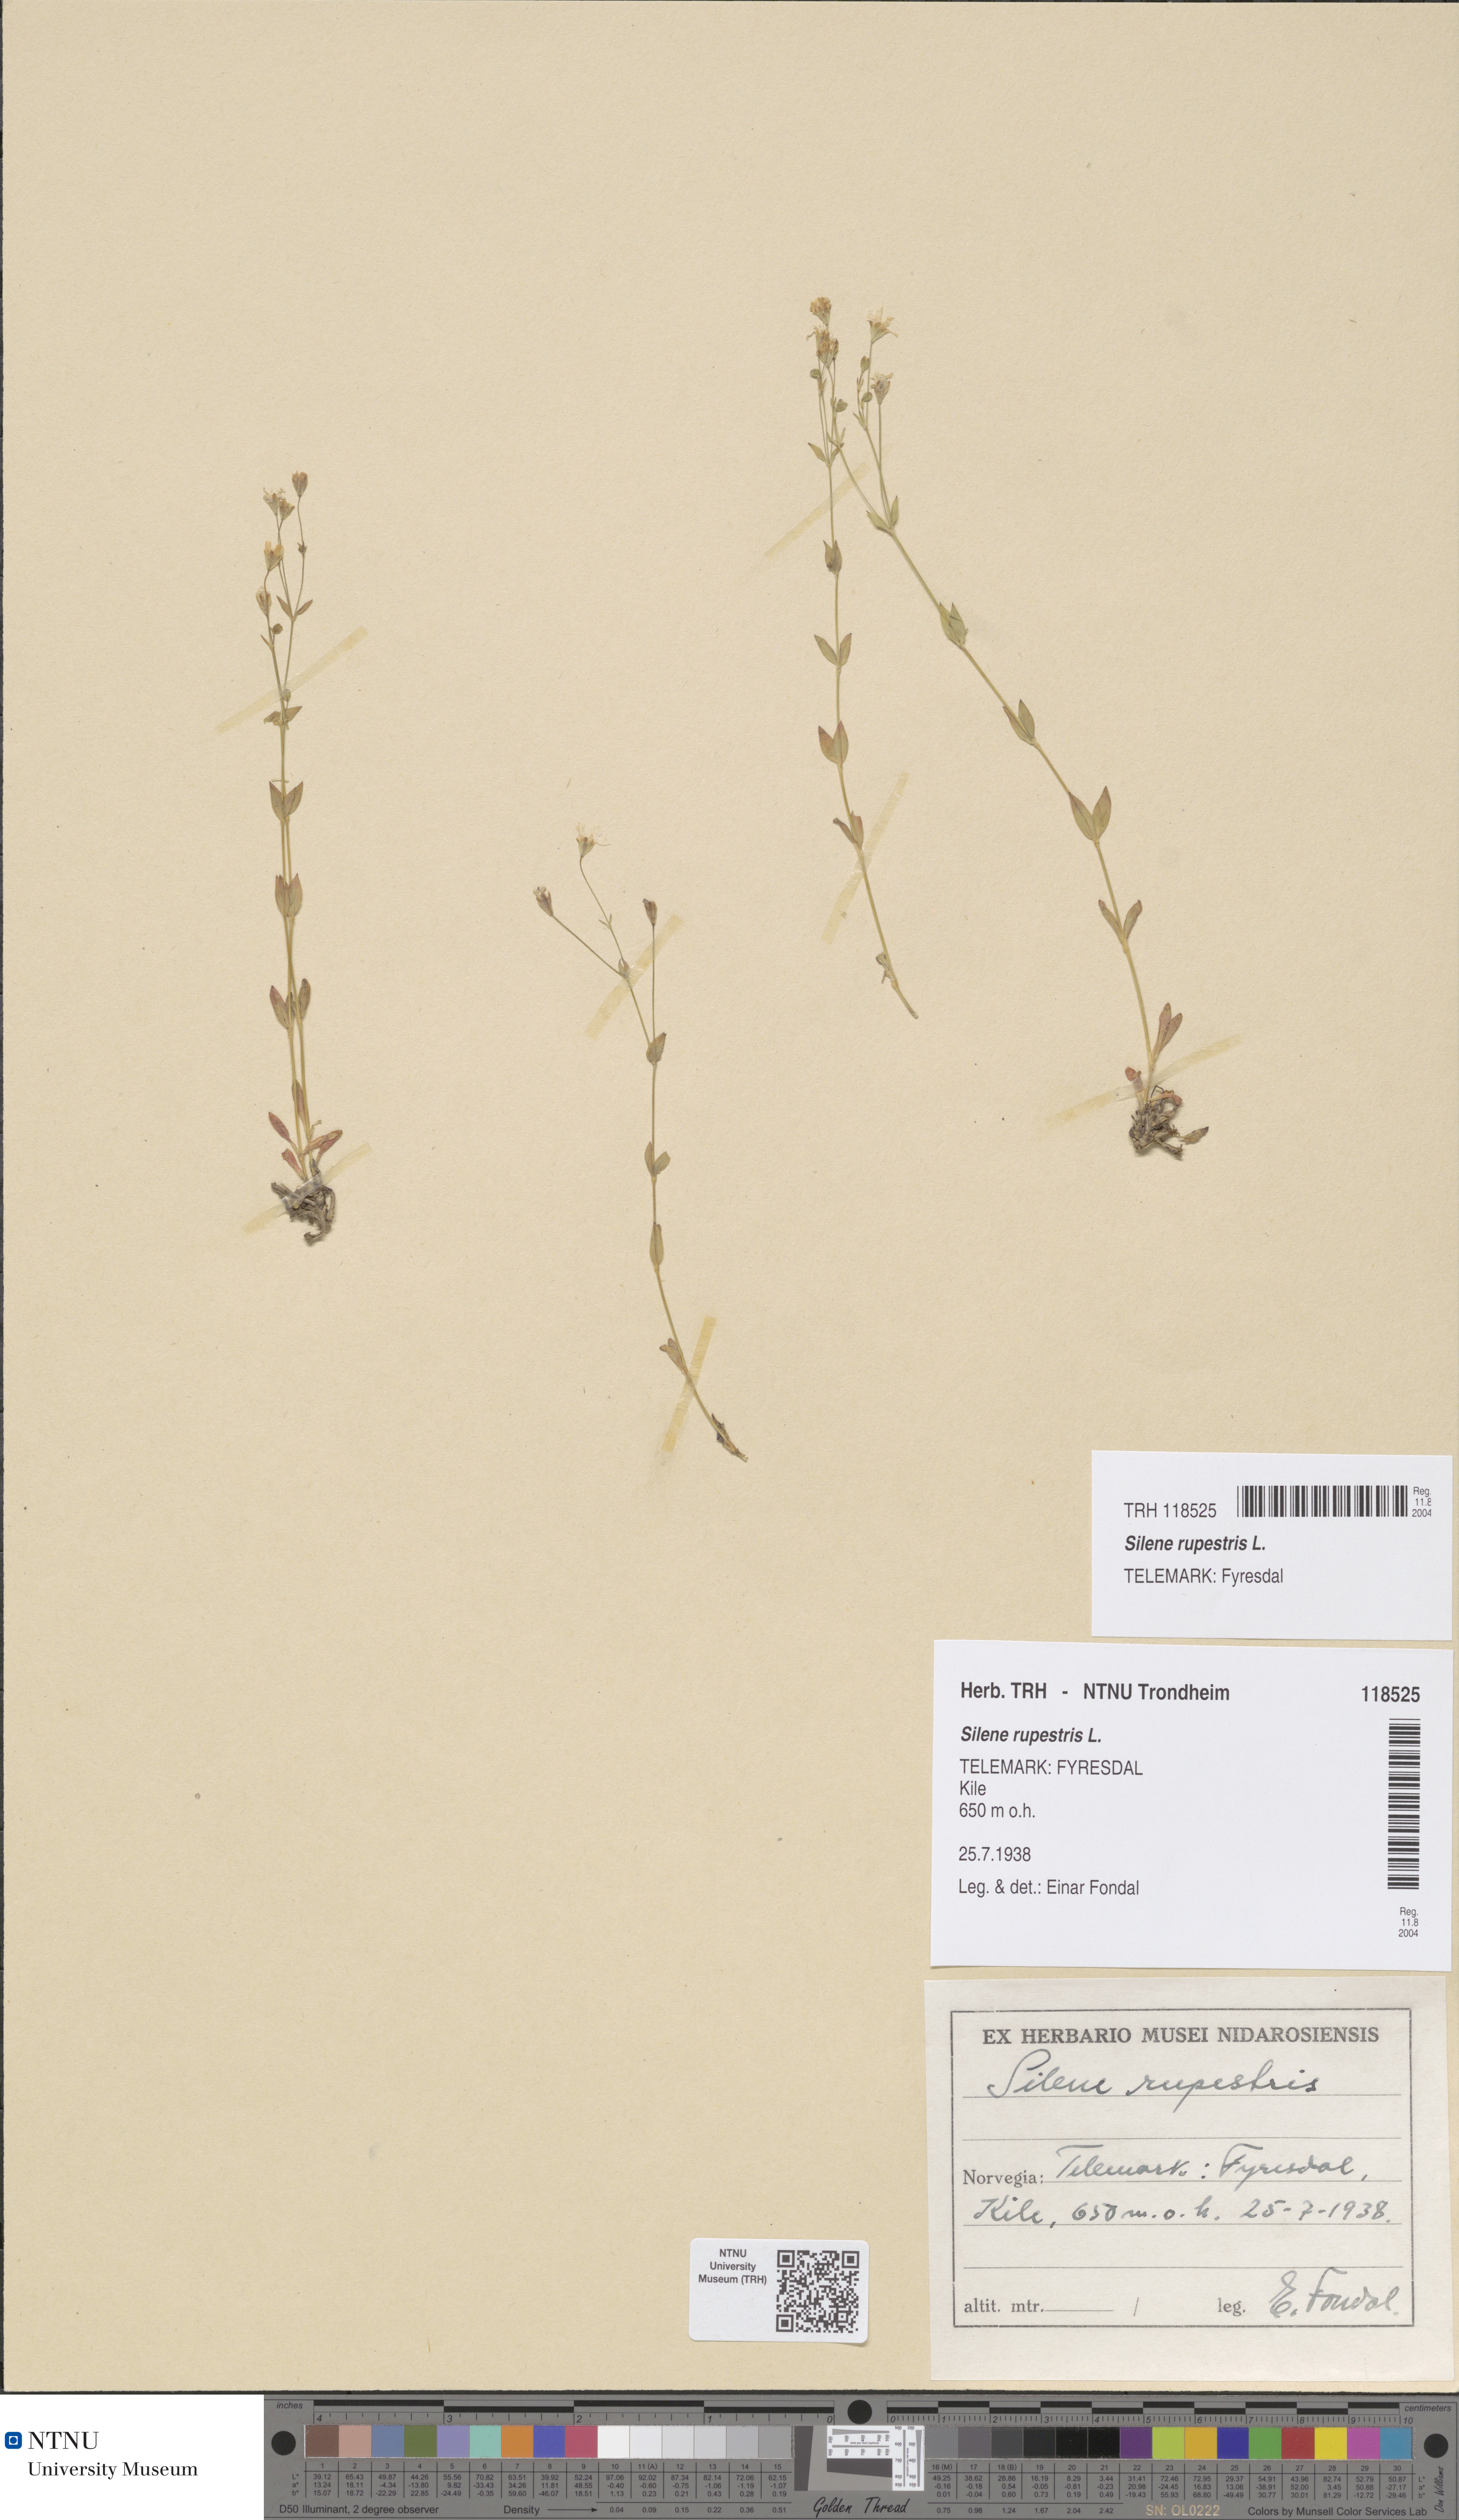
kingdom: Plantae
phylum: Tracheophyta
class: Magnoliopsida
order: Caryophyllales
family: Caryophyllaceae
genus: Atocion
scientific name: Atocion rupestre
